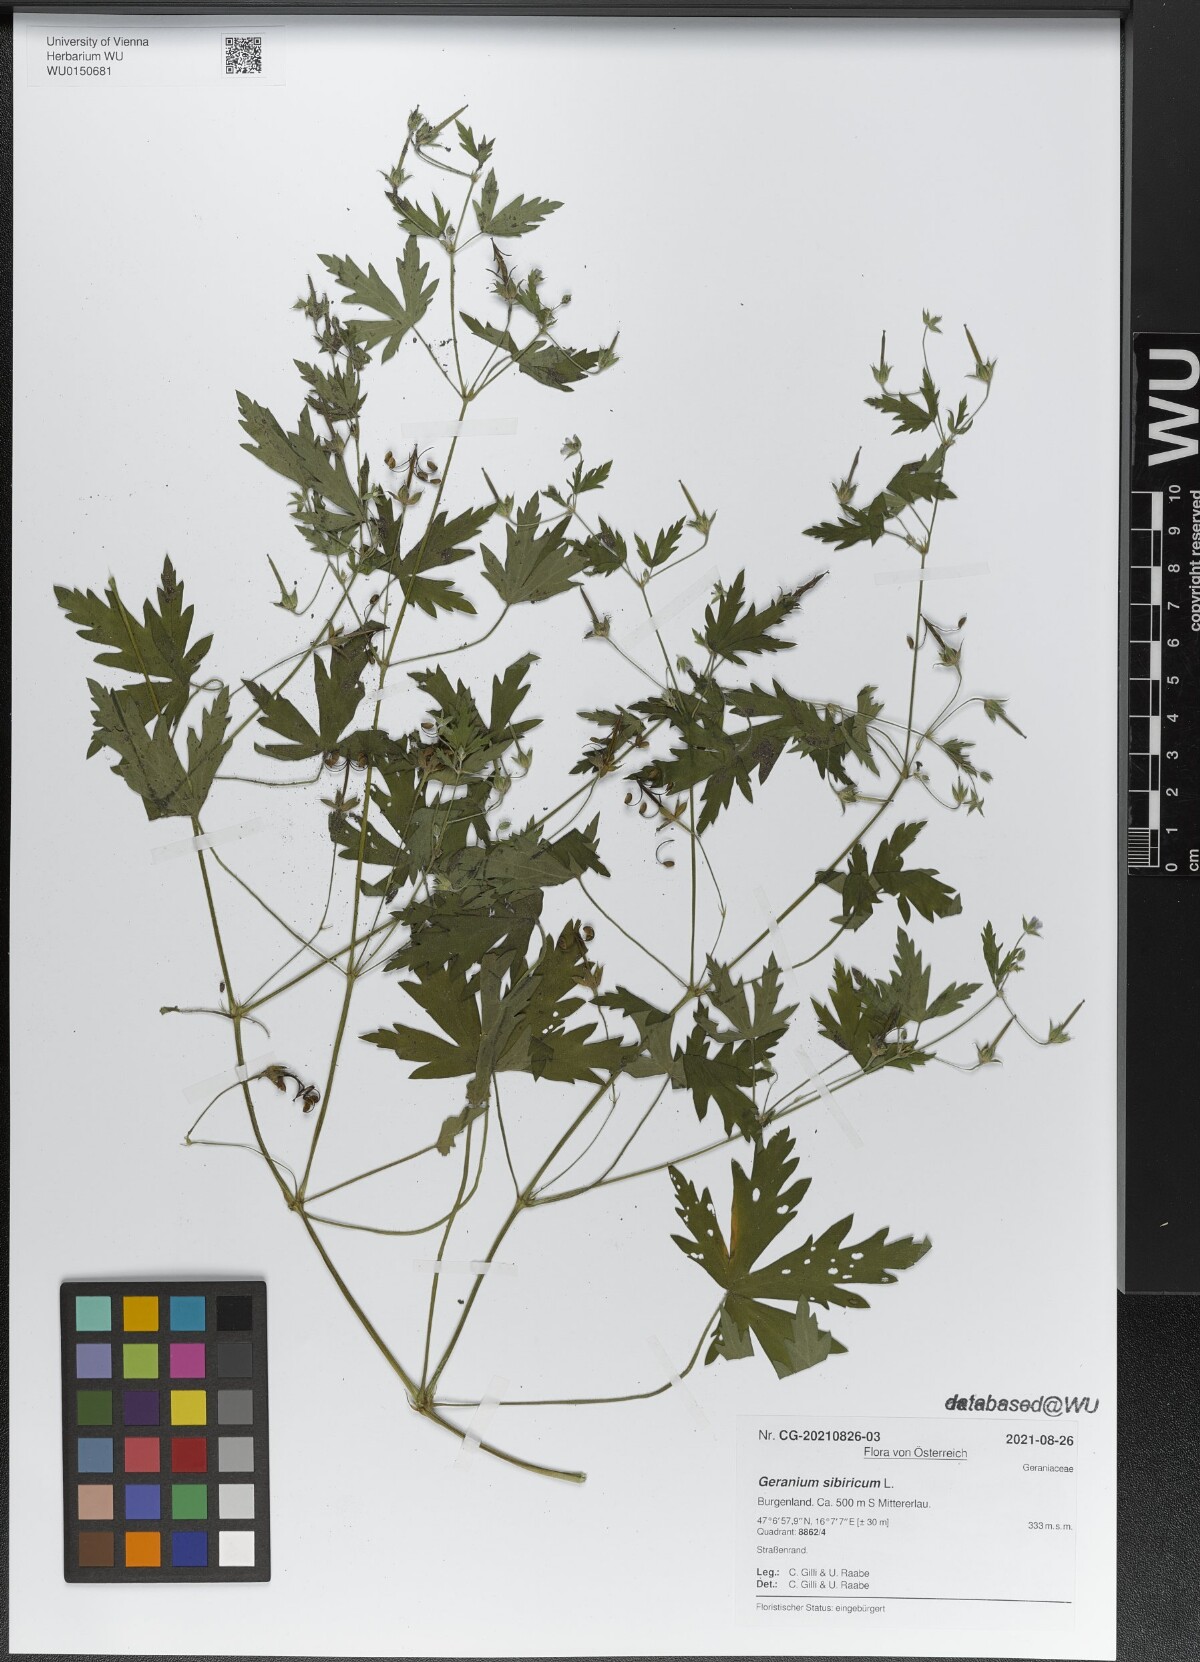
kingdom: Plantae
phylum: Tracheophyta
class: Magnoliopsida
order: Geraniales
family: Geraniaceae
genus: Geranium
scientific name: Geranium sibiricum
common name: Siberian crane's-bill
